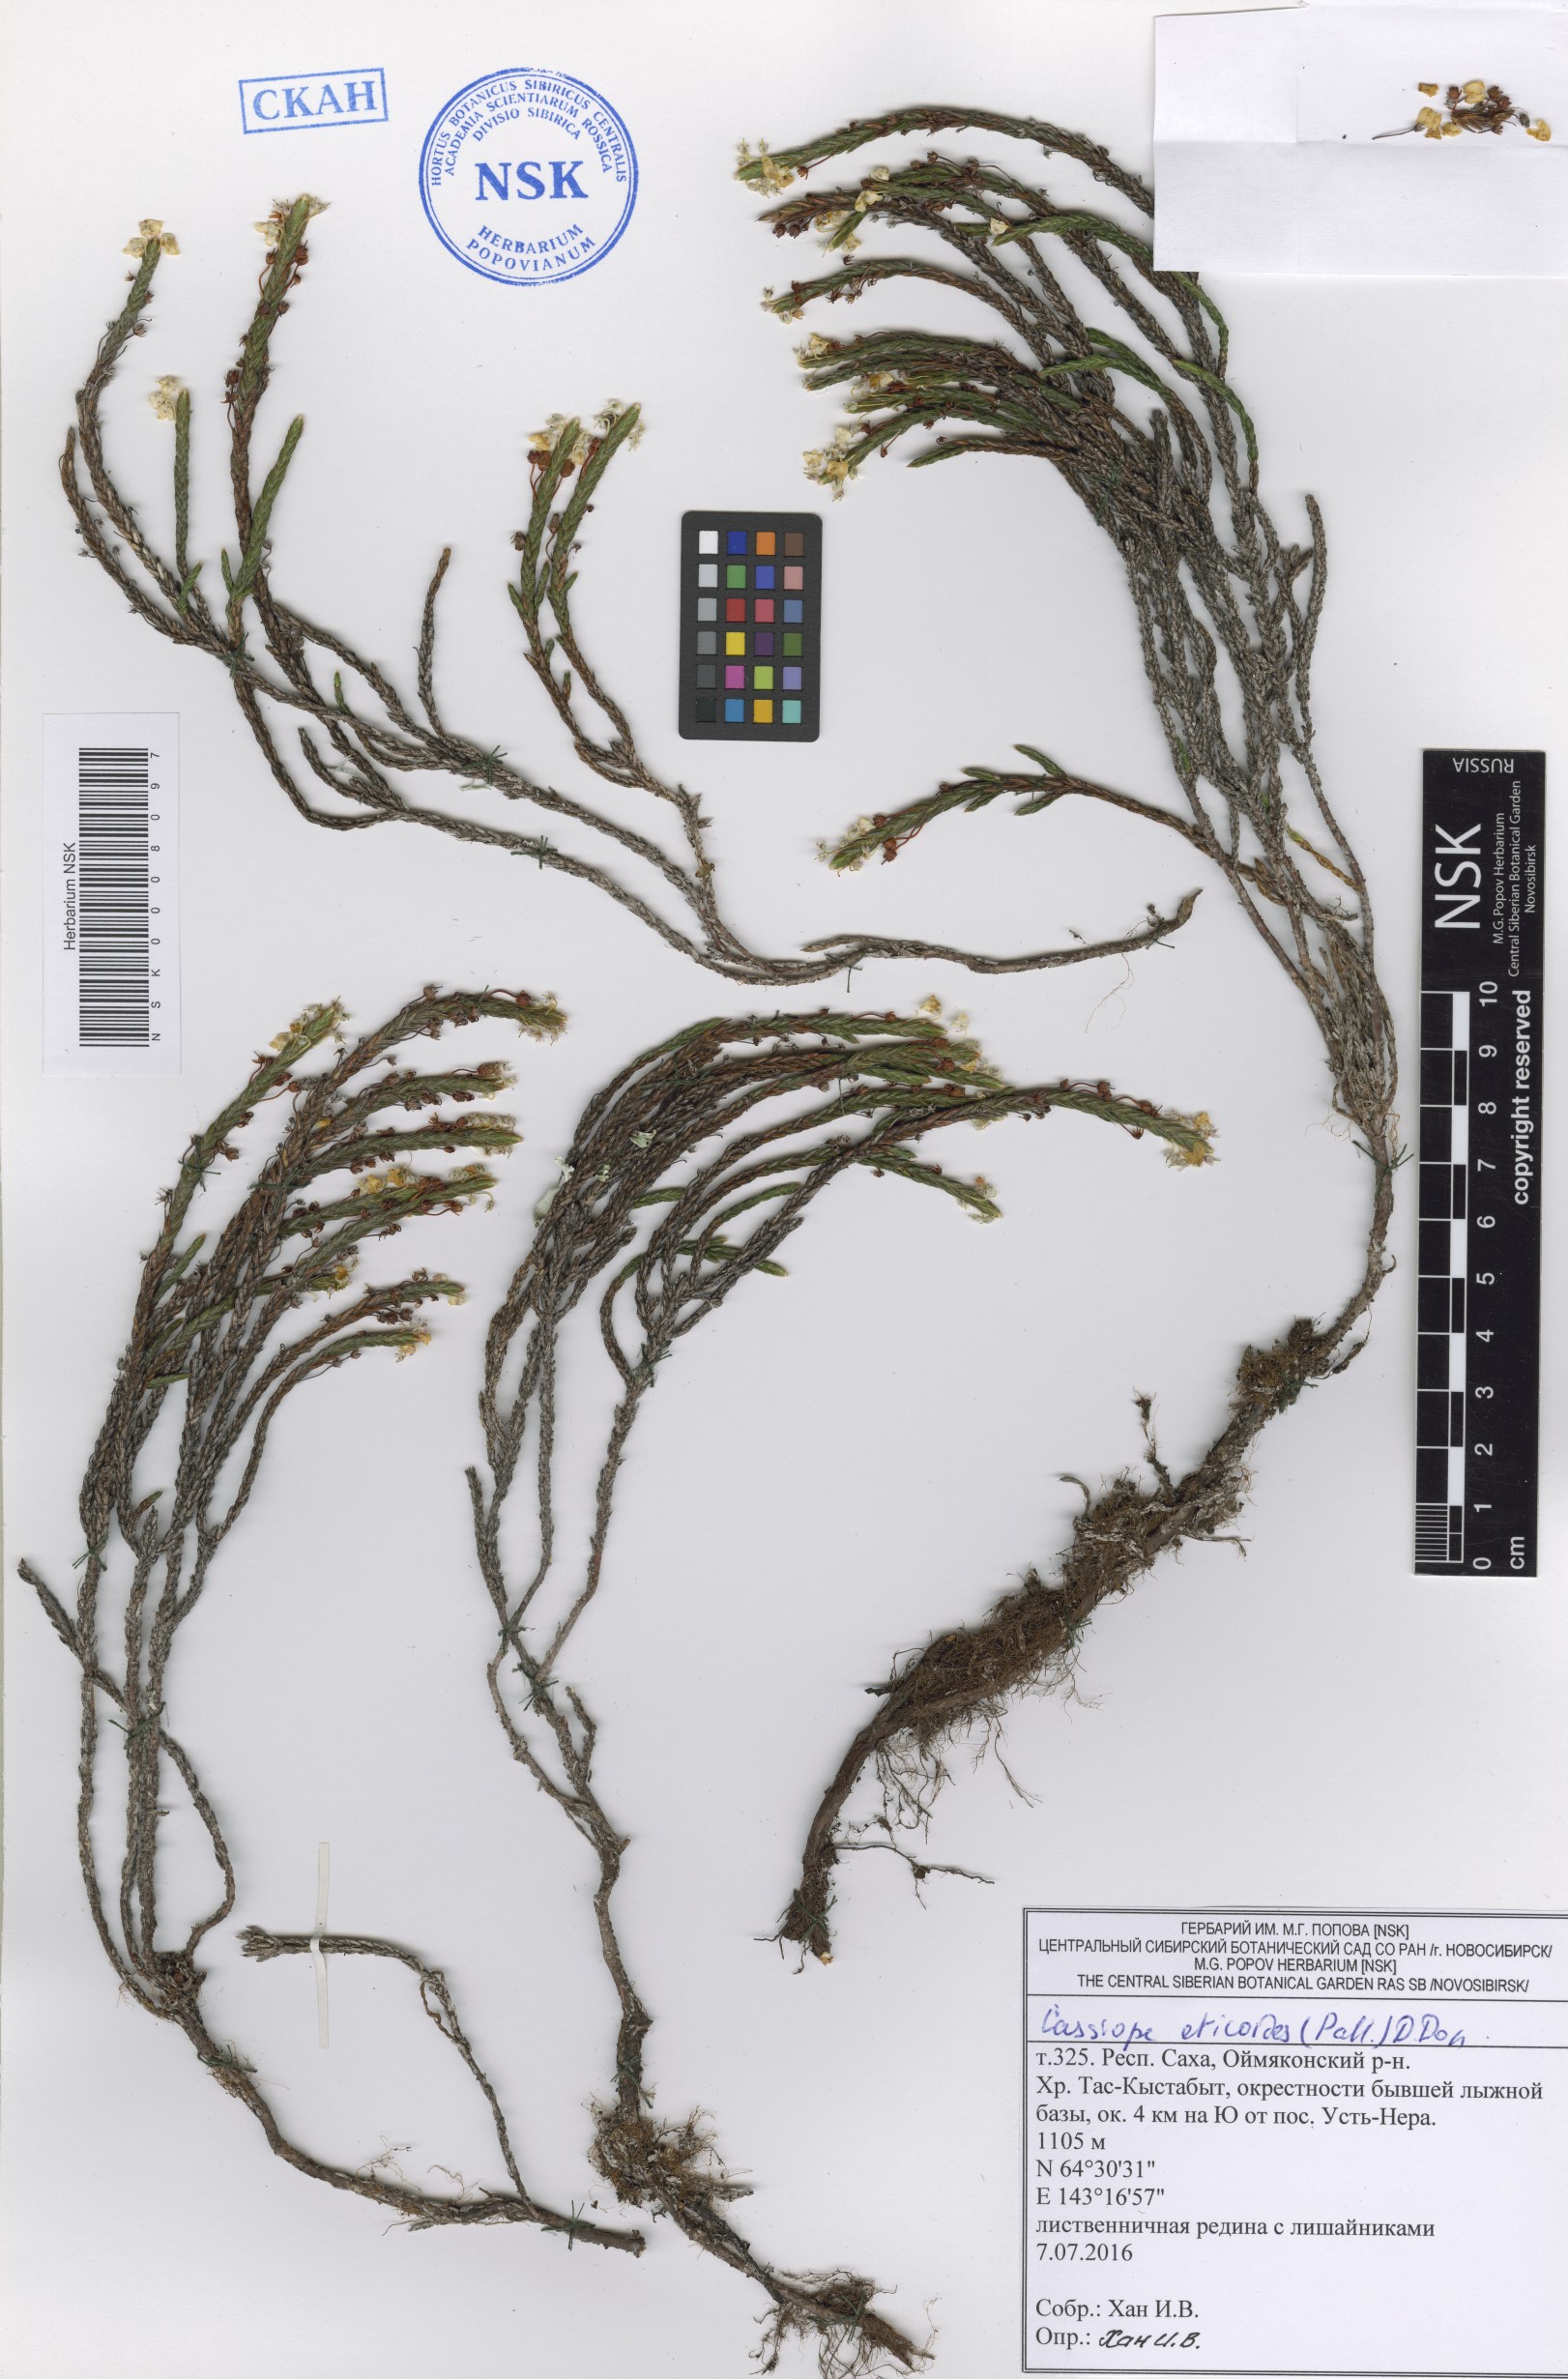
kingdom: Plantae
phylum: Tracheophyta
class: Magnoliopsida
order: Ericales
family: Ericaceae
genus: Cassiope
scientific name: Cassiope ericoides
